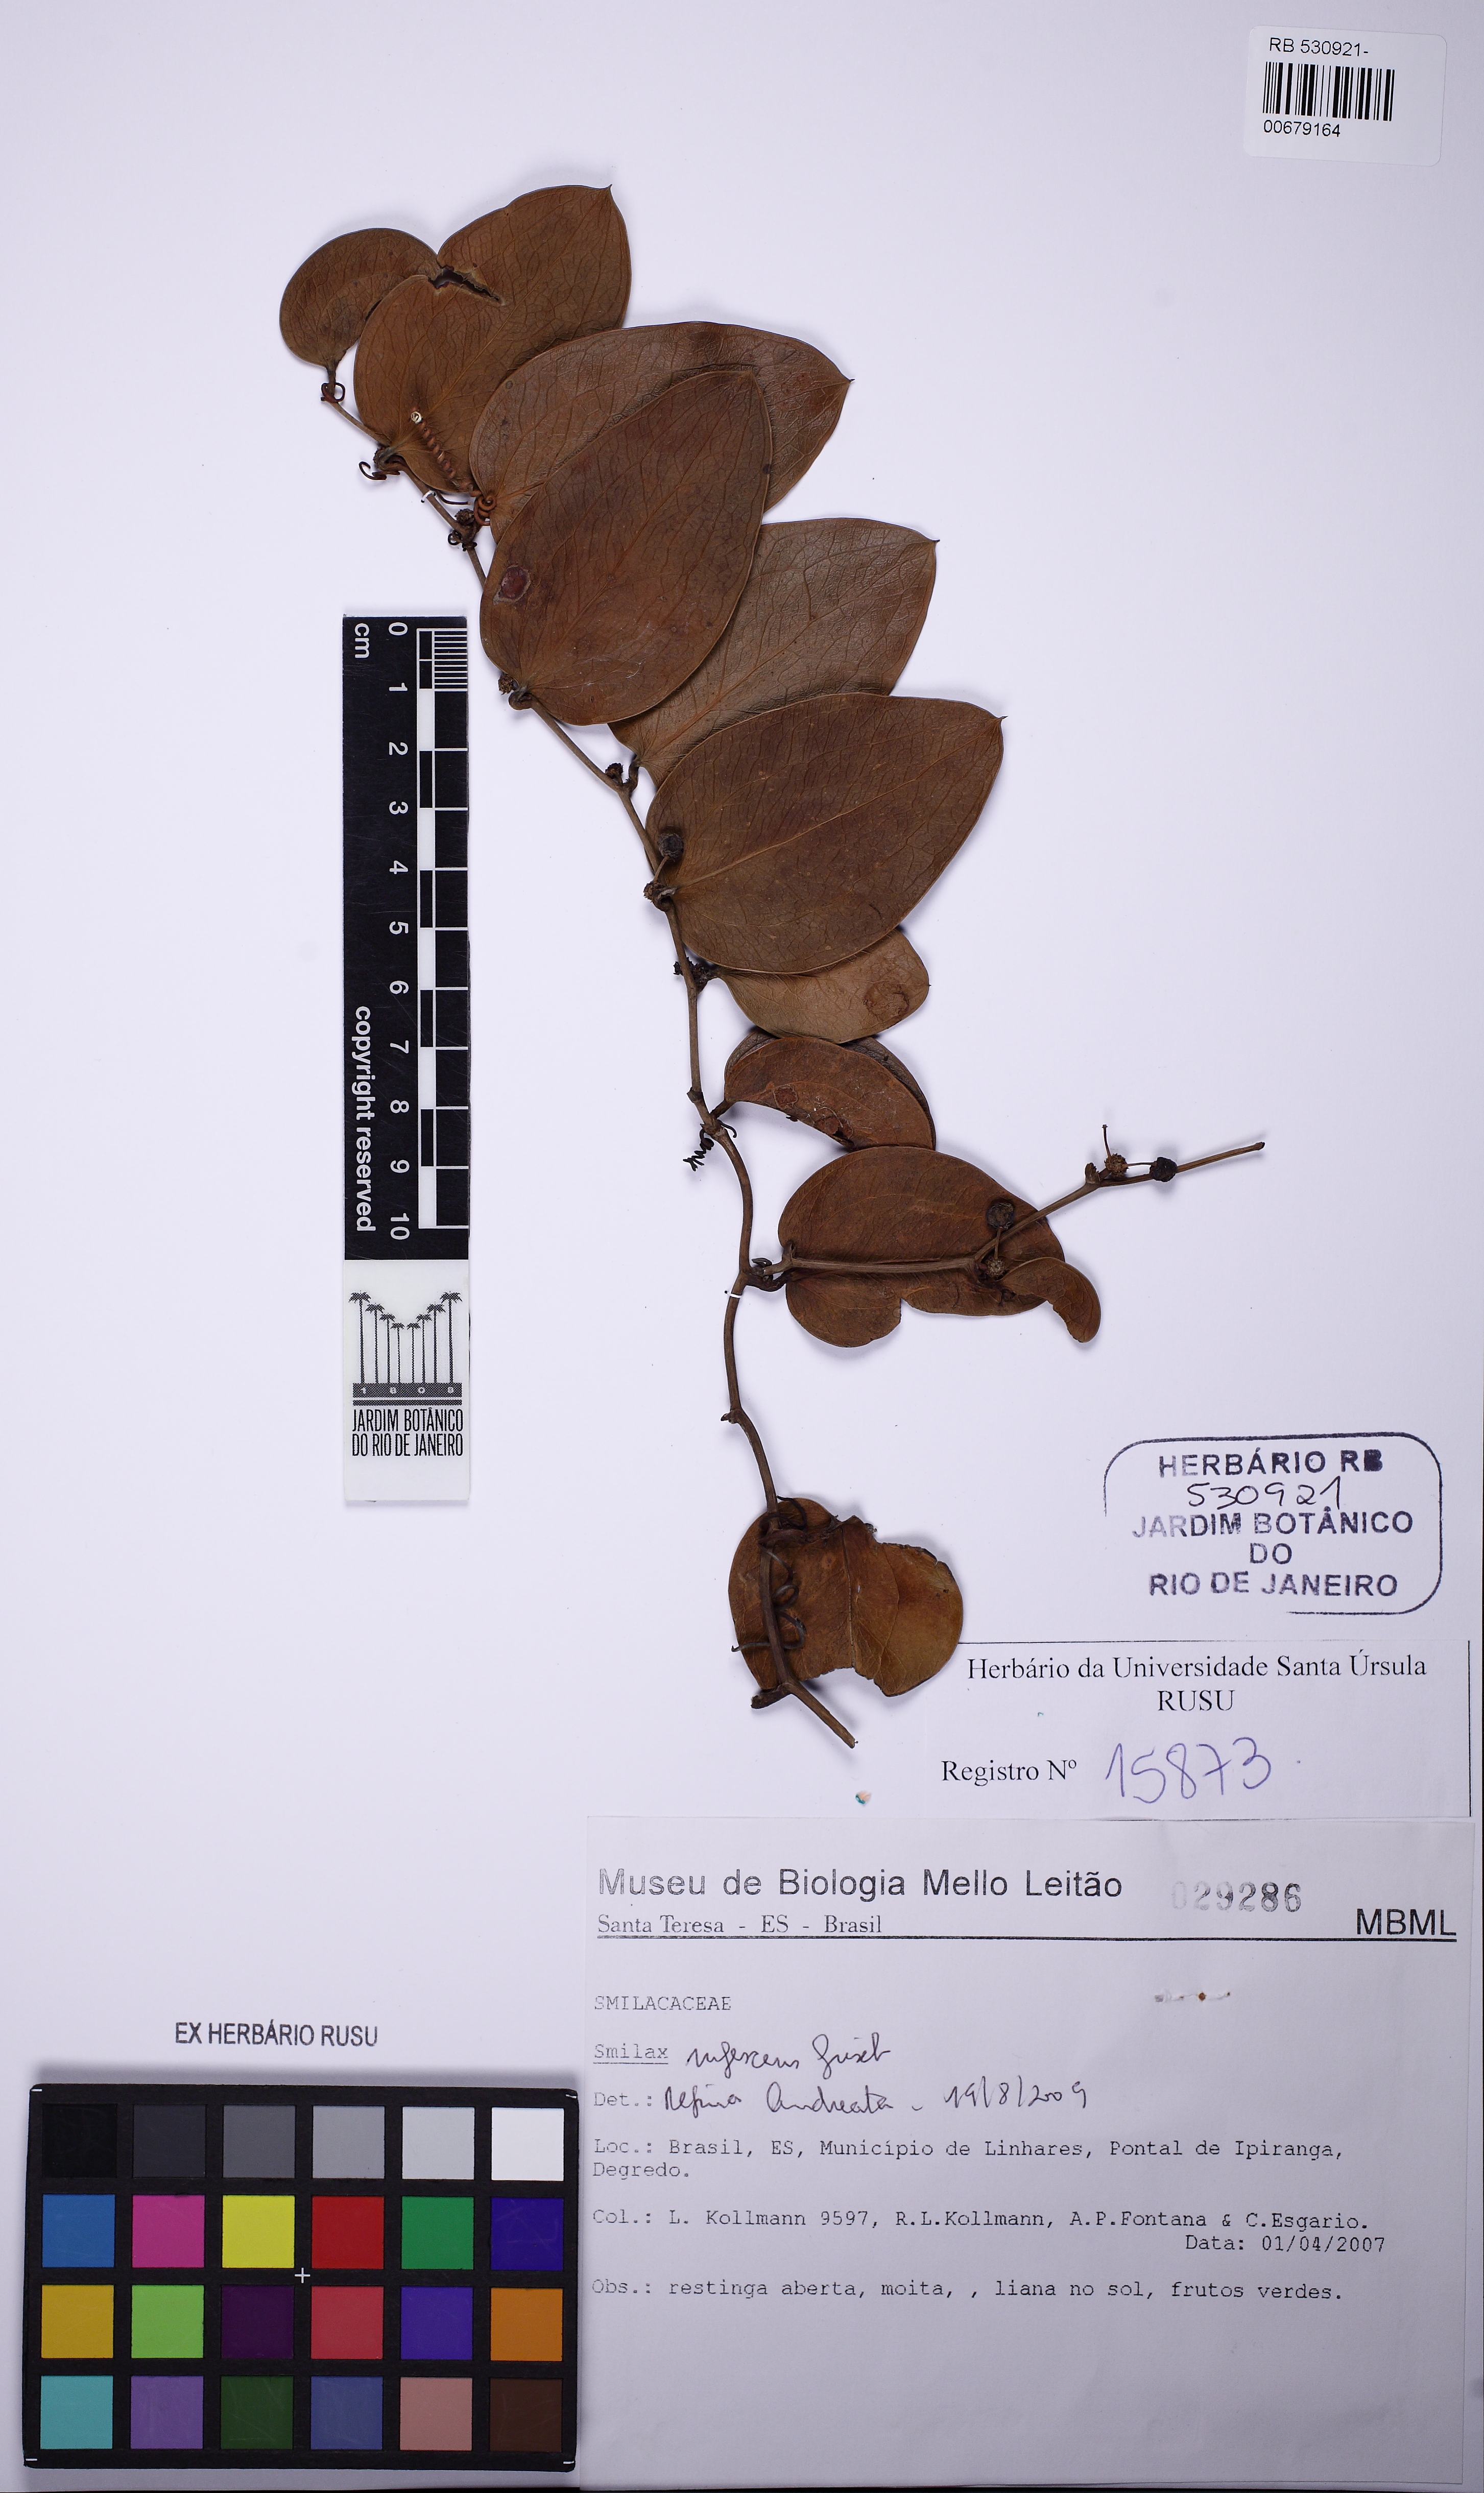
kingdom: Plantae
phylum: Tracheophyta
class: Liliopsida
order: Liliales
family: Smilacaceae
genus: Smilax
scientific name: Smilax rufescens
